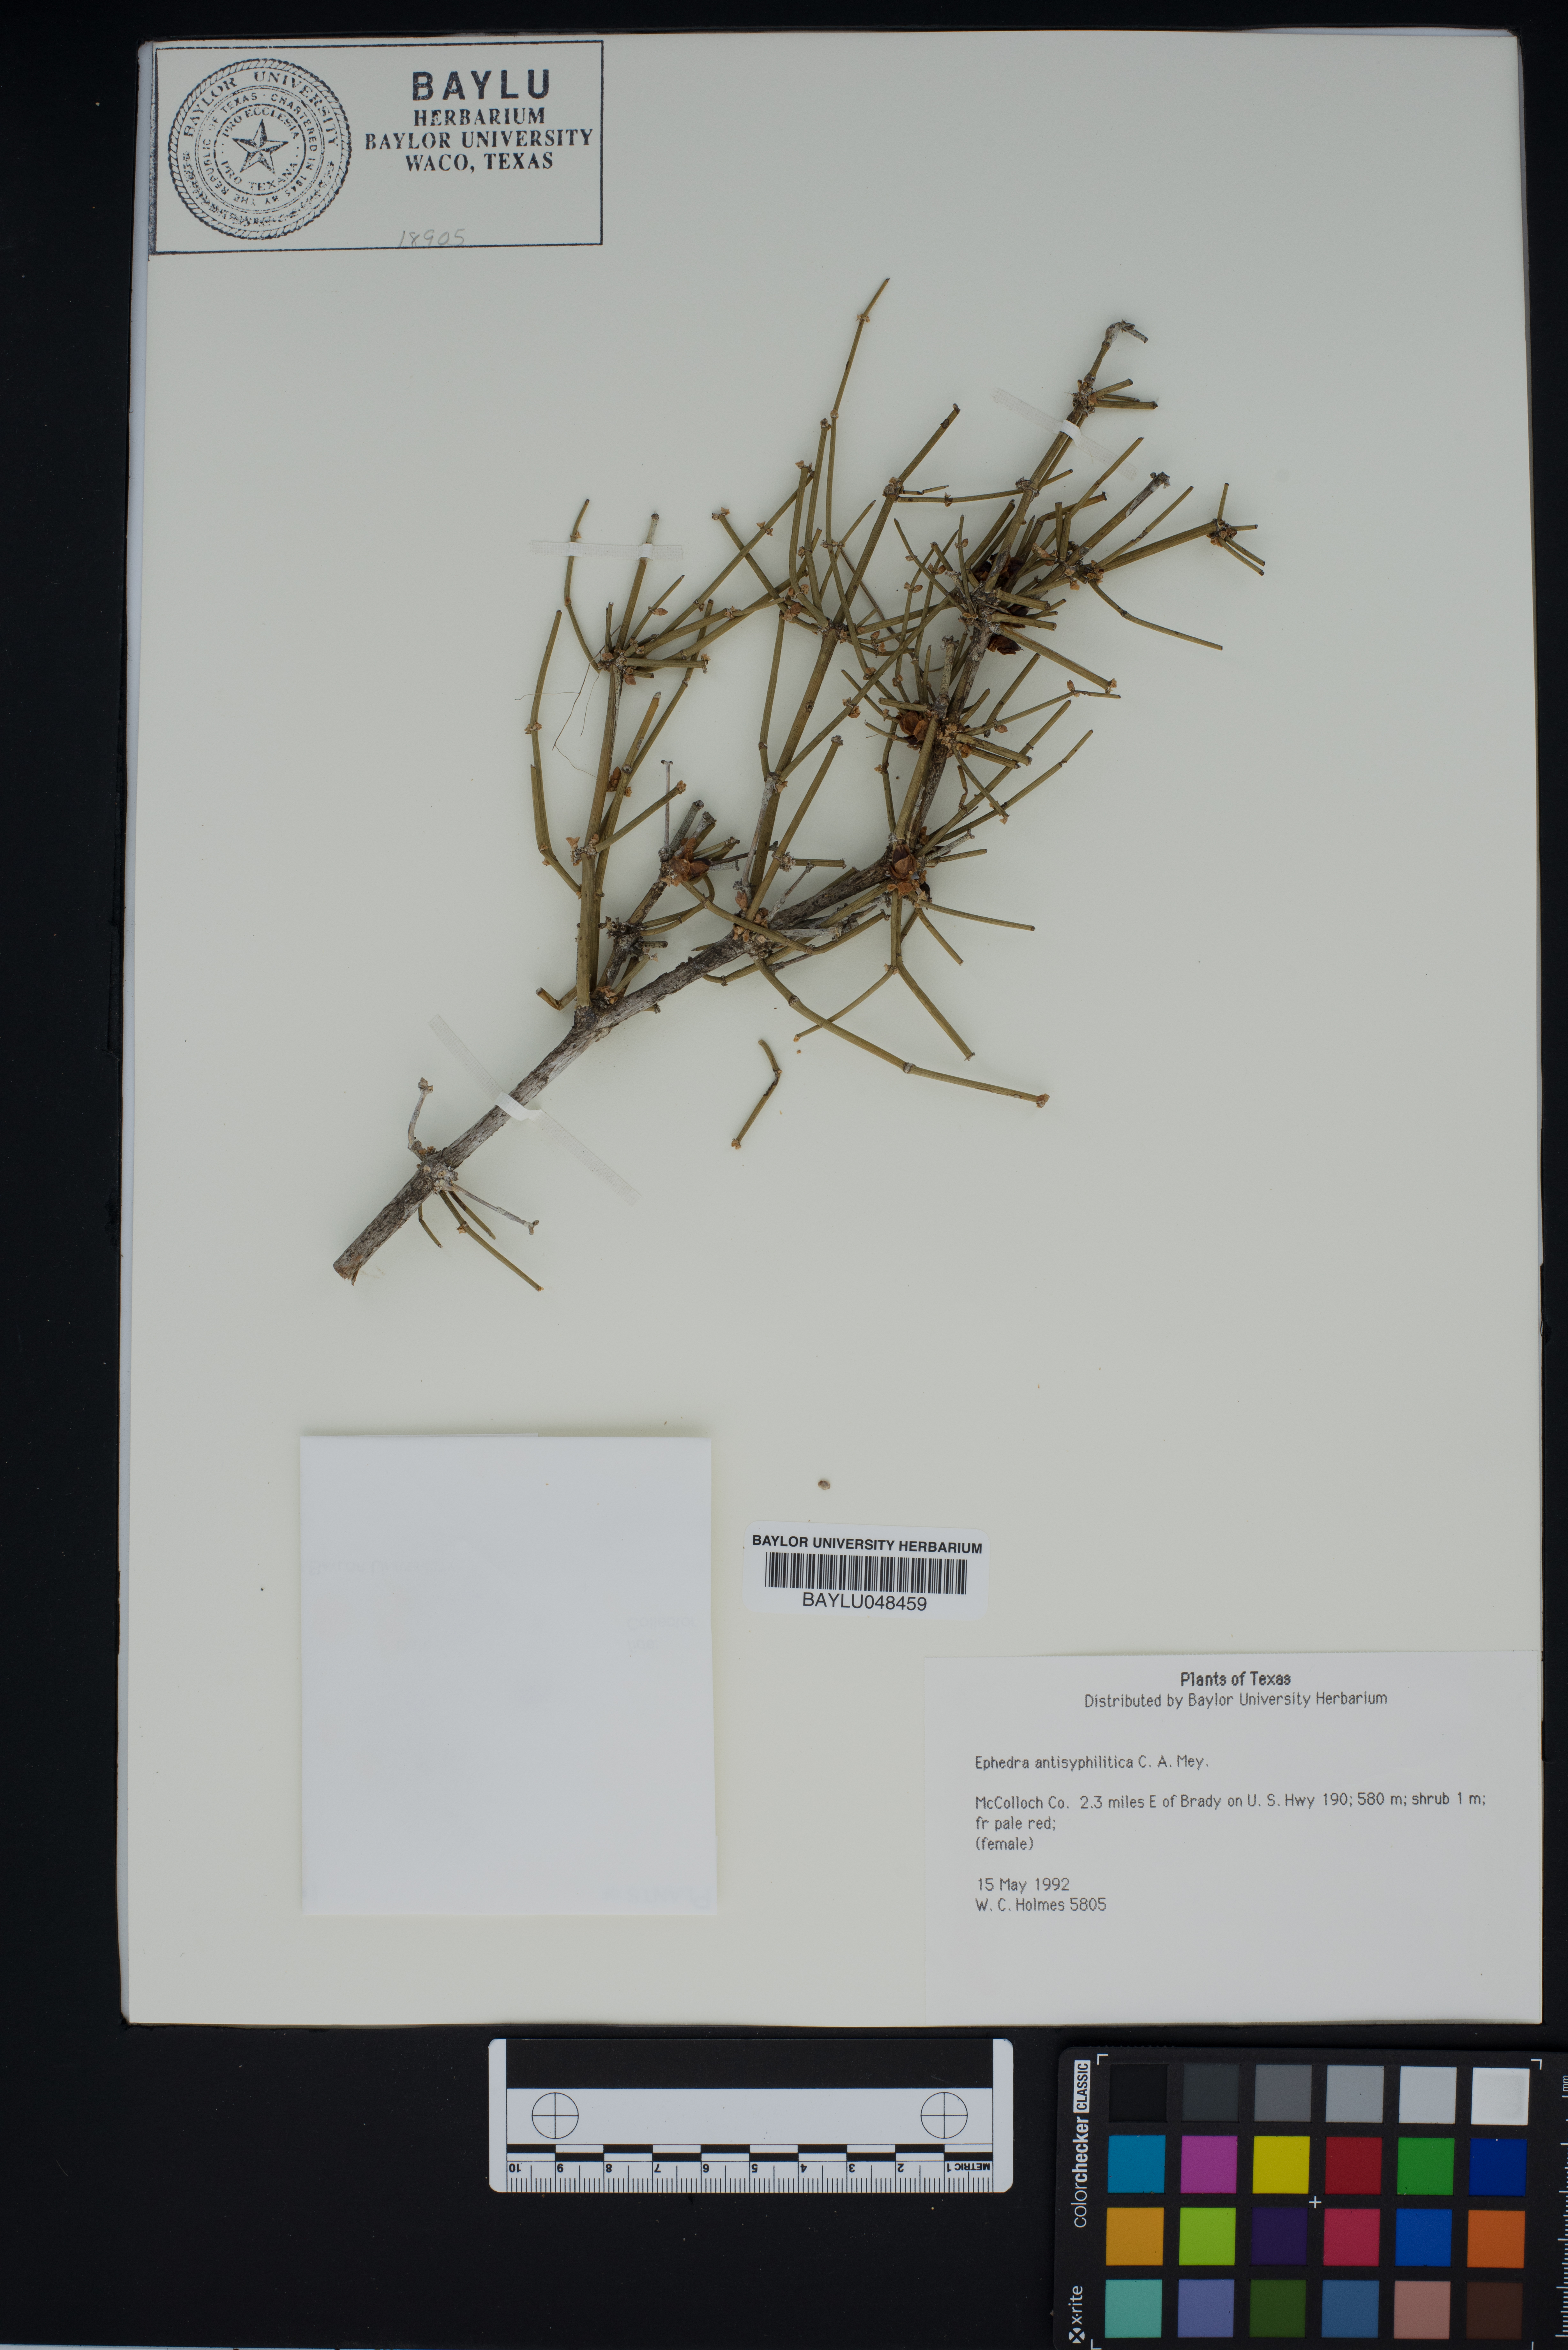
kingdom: Plantae
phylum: Tracheophyta
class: Gnetopsida
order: Ephedrales
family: Ephedraceae
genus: Ephedra
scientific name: Ephedra antisyphilitica
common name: Clipweed
